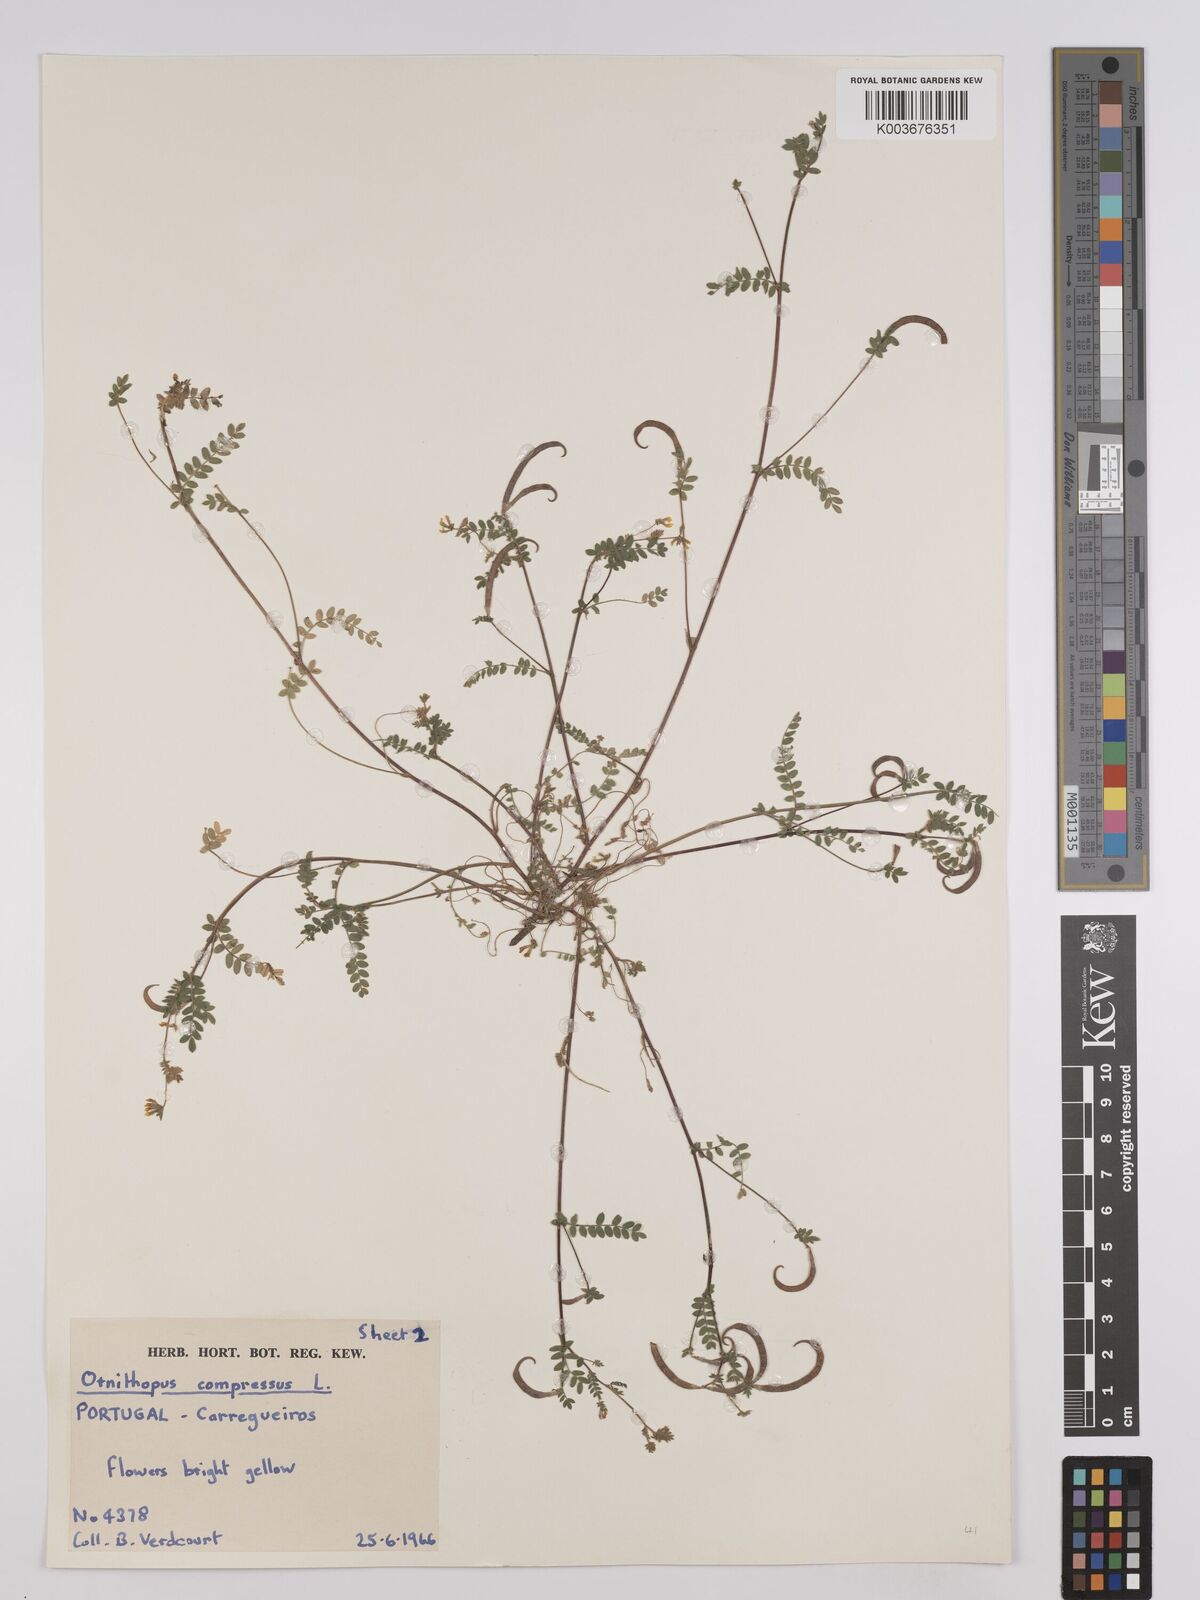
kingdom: Plantae
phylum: Tracheophyta
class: Magnoliopsida
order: Fabales
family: Fabaceae
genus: Ornithopus
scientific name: Ornithopus compressus
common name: Yellow serradella
